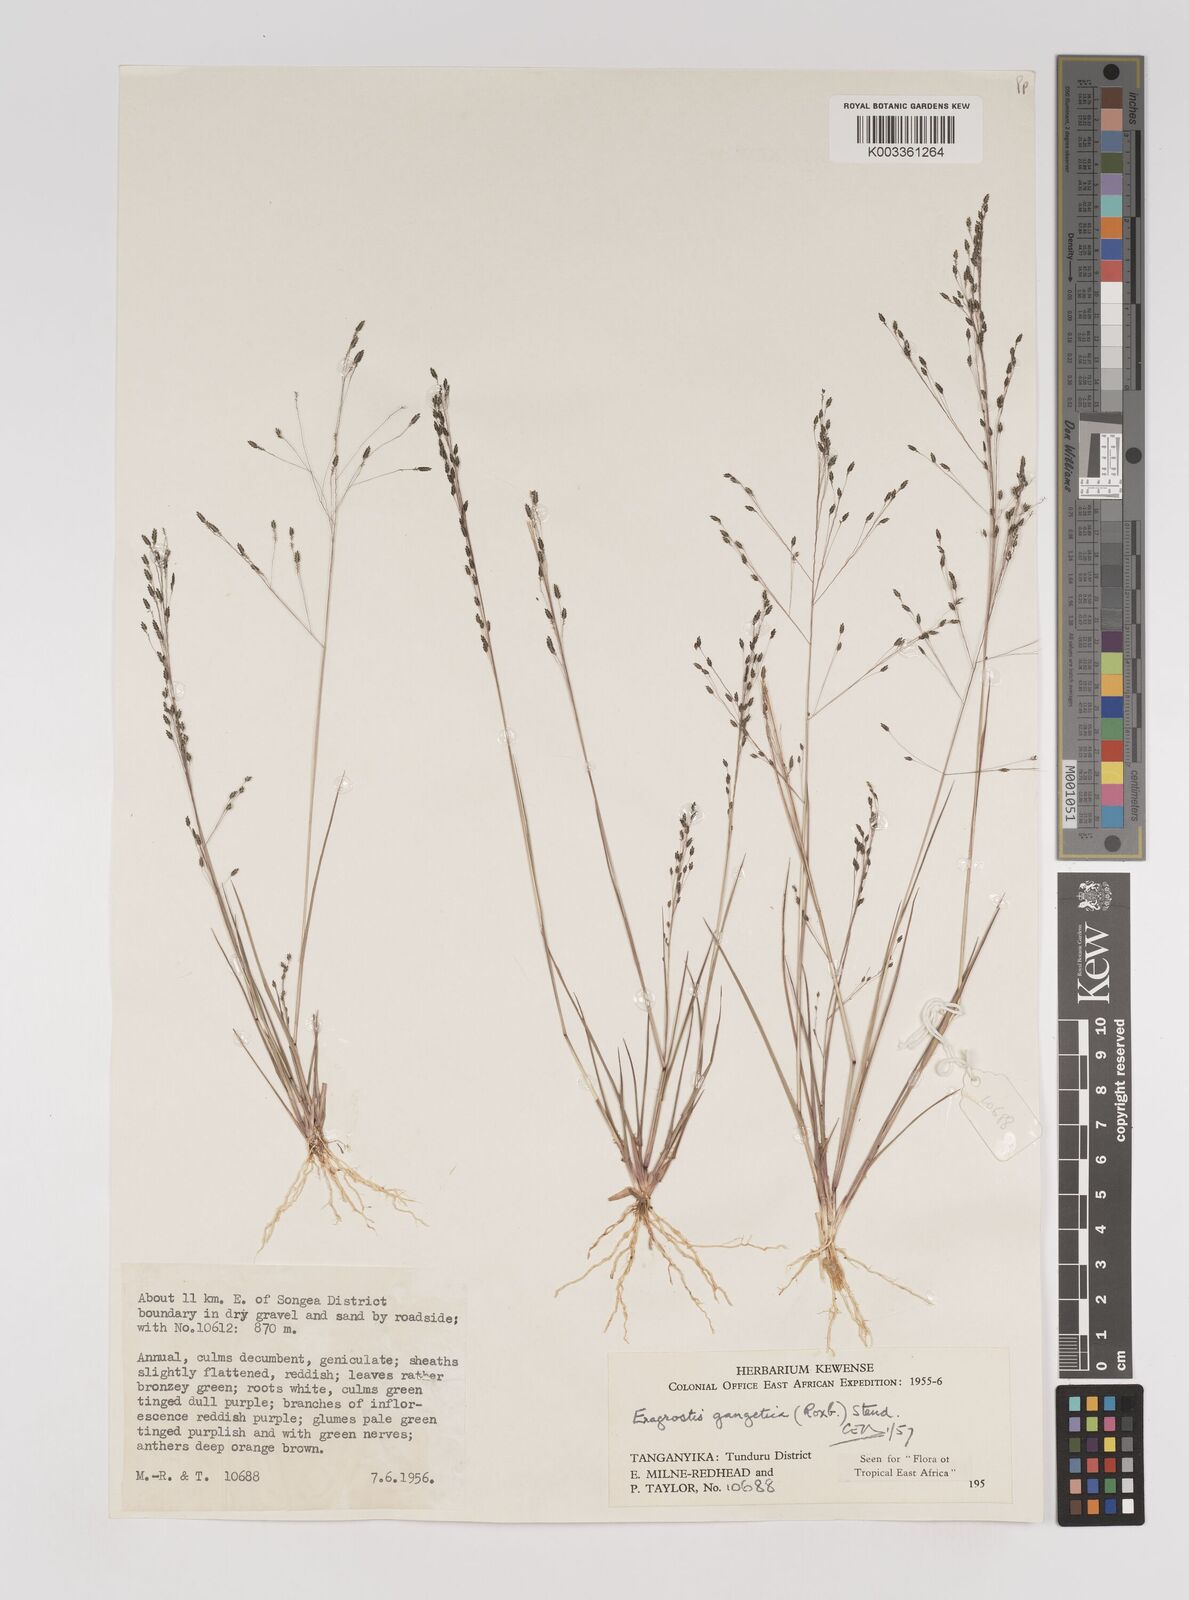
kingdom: Plantae
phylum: Tracheophyta
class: Liliopsida
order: Poales
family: Poaceae
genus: Eragrostis
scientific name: Eragrostis gangetica
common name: Slimflower lovegrass
